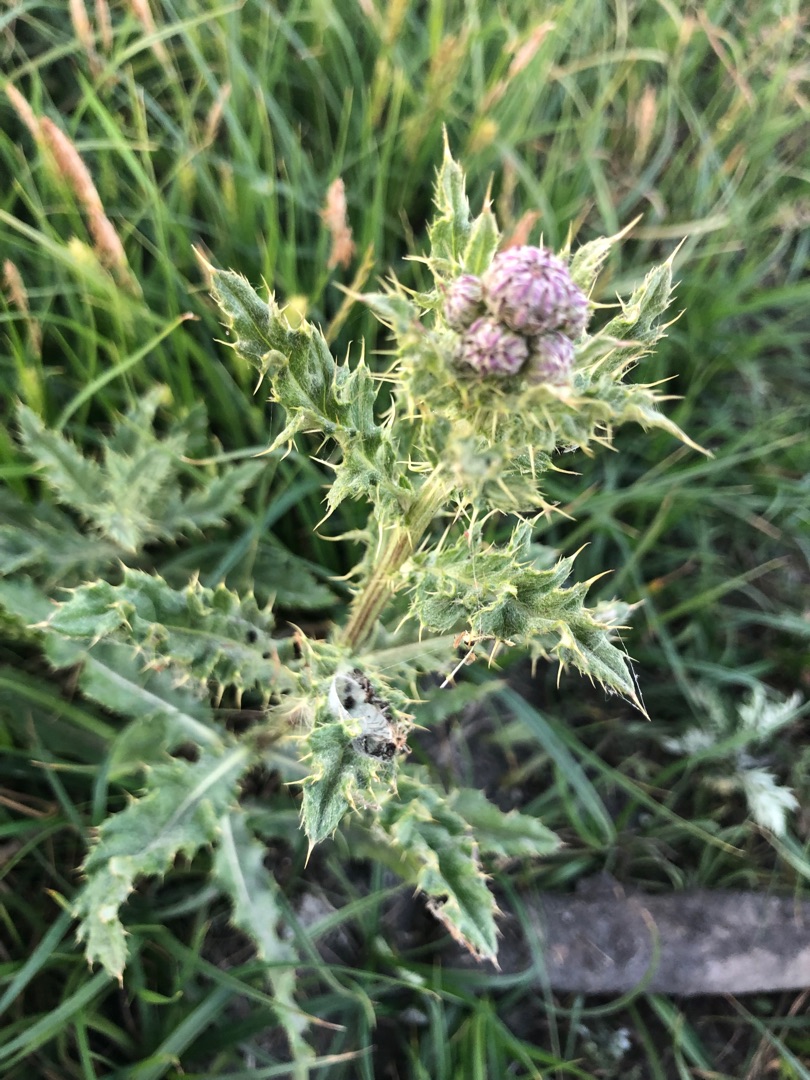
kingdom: Plantae
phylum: Tracheophyta
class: Magnoliopsida
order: Asterales
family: Asteraceae
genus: Cirsium
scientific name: Cirsium arvense
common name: Ager-tidsel
